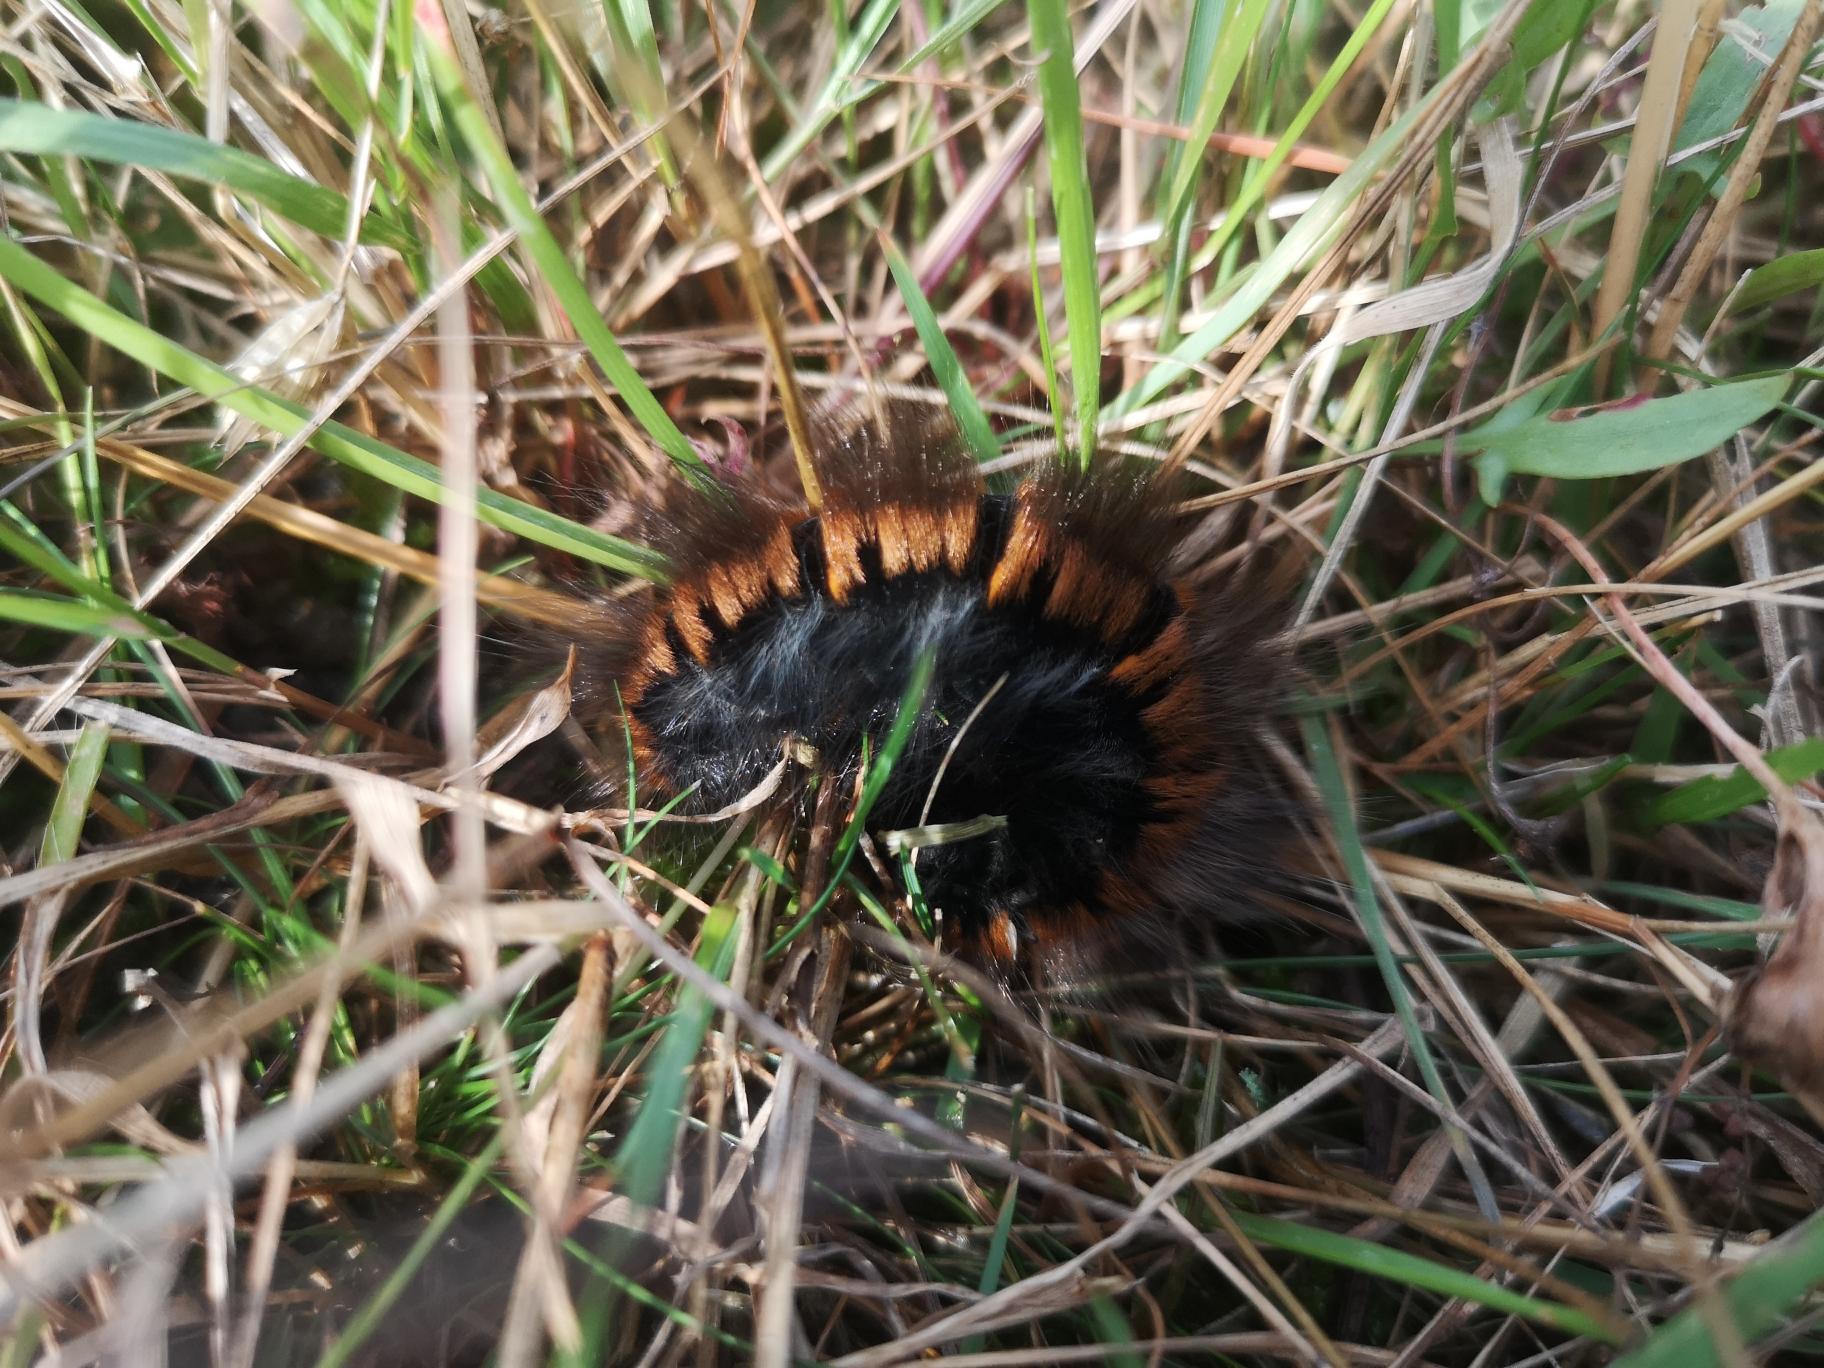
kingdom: Animalia
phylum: Arthropoda
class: Insecta
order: Lepidoptera
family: Lasiocampidae
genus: Macrothylacia
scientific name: Macrothylacia rubi
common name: Brombærspinder
